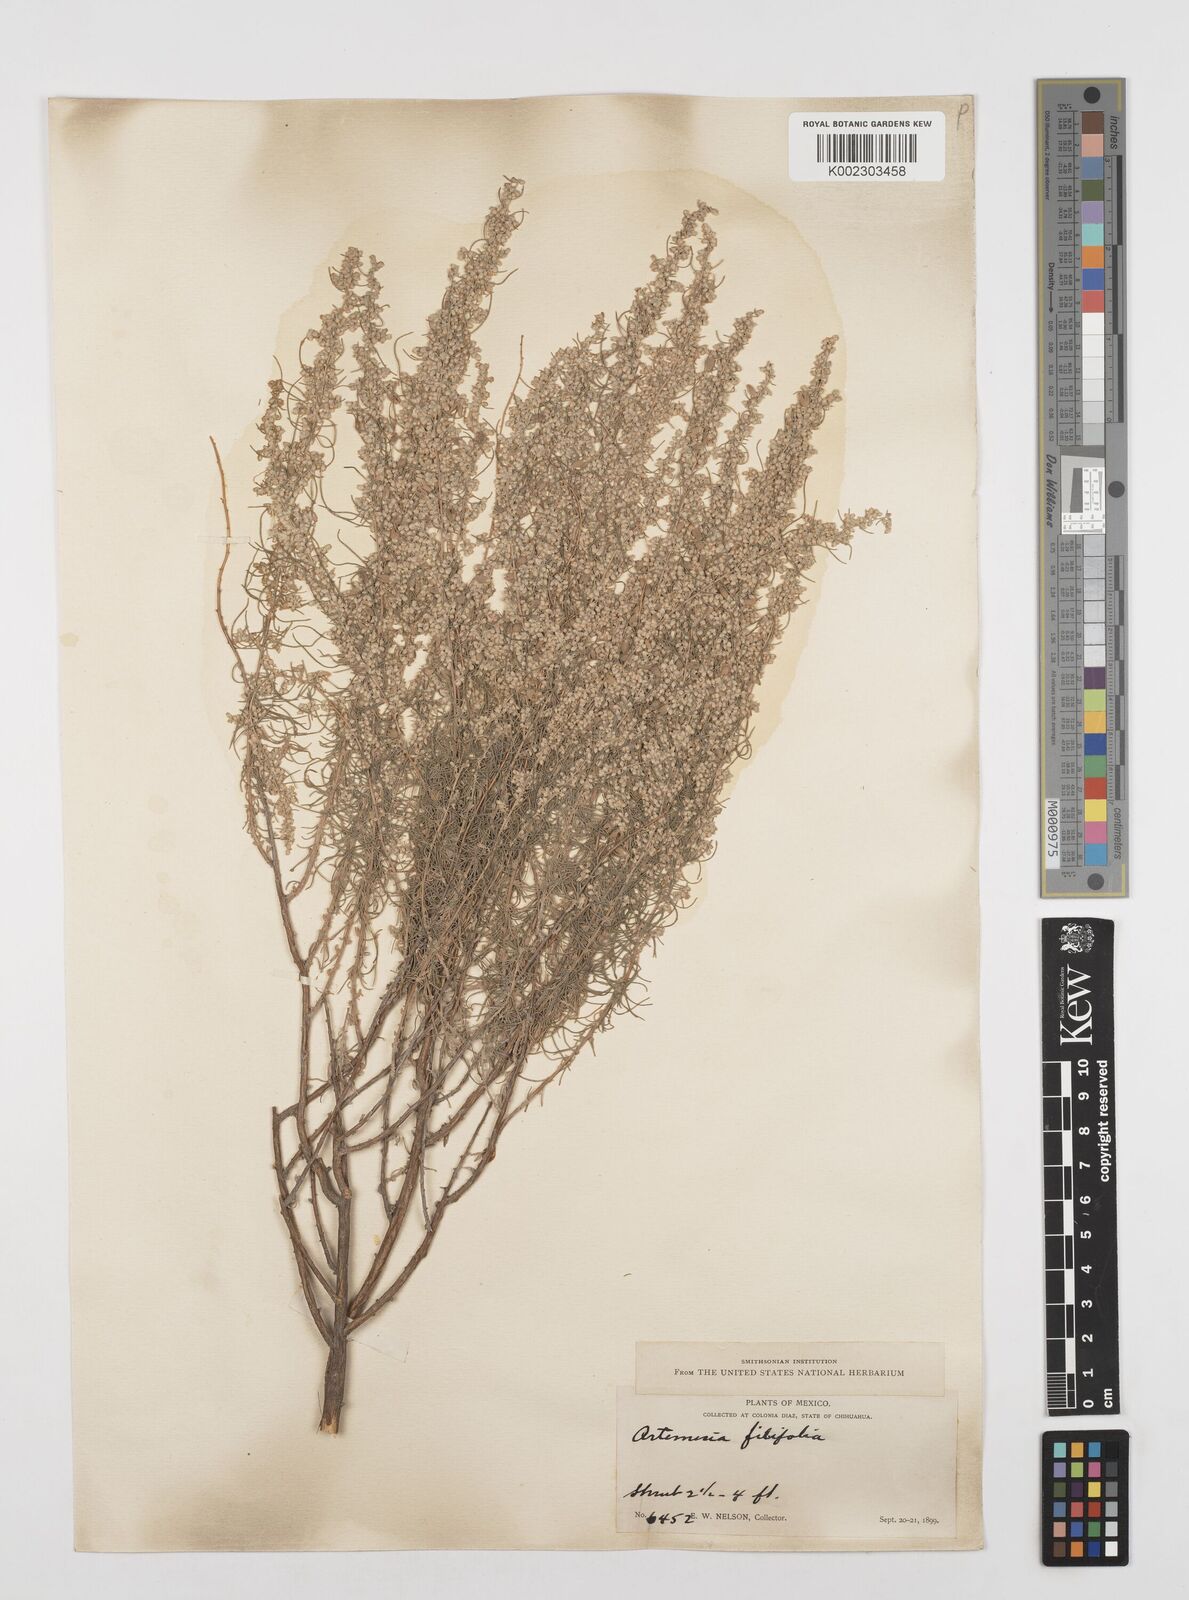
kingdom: Plantae
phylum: Tracheophyta
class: Magnoliopsida
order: Asterales
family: Asteraceae
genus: Artemisia
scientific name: Artemisia filifolia
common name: Sand-sage
